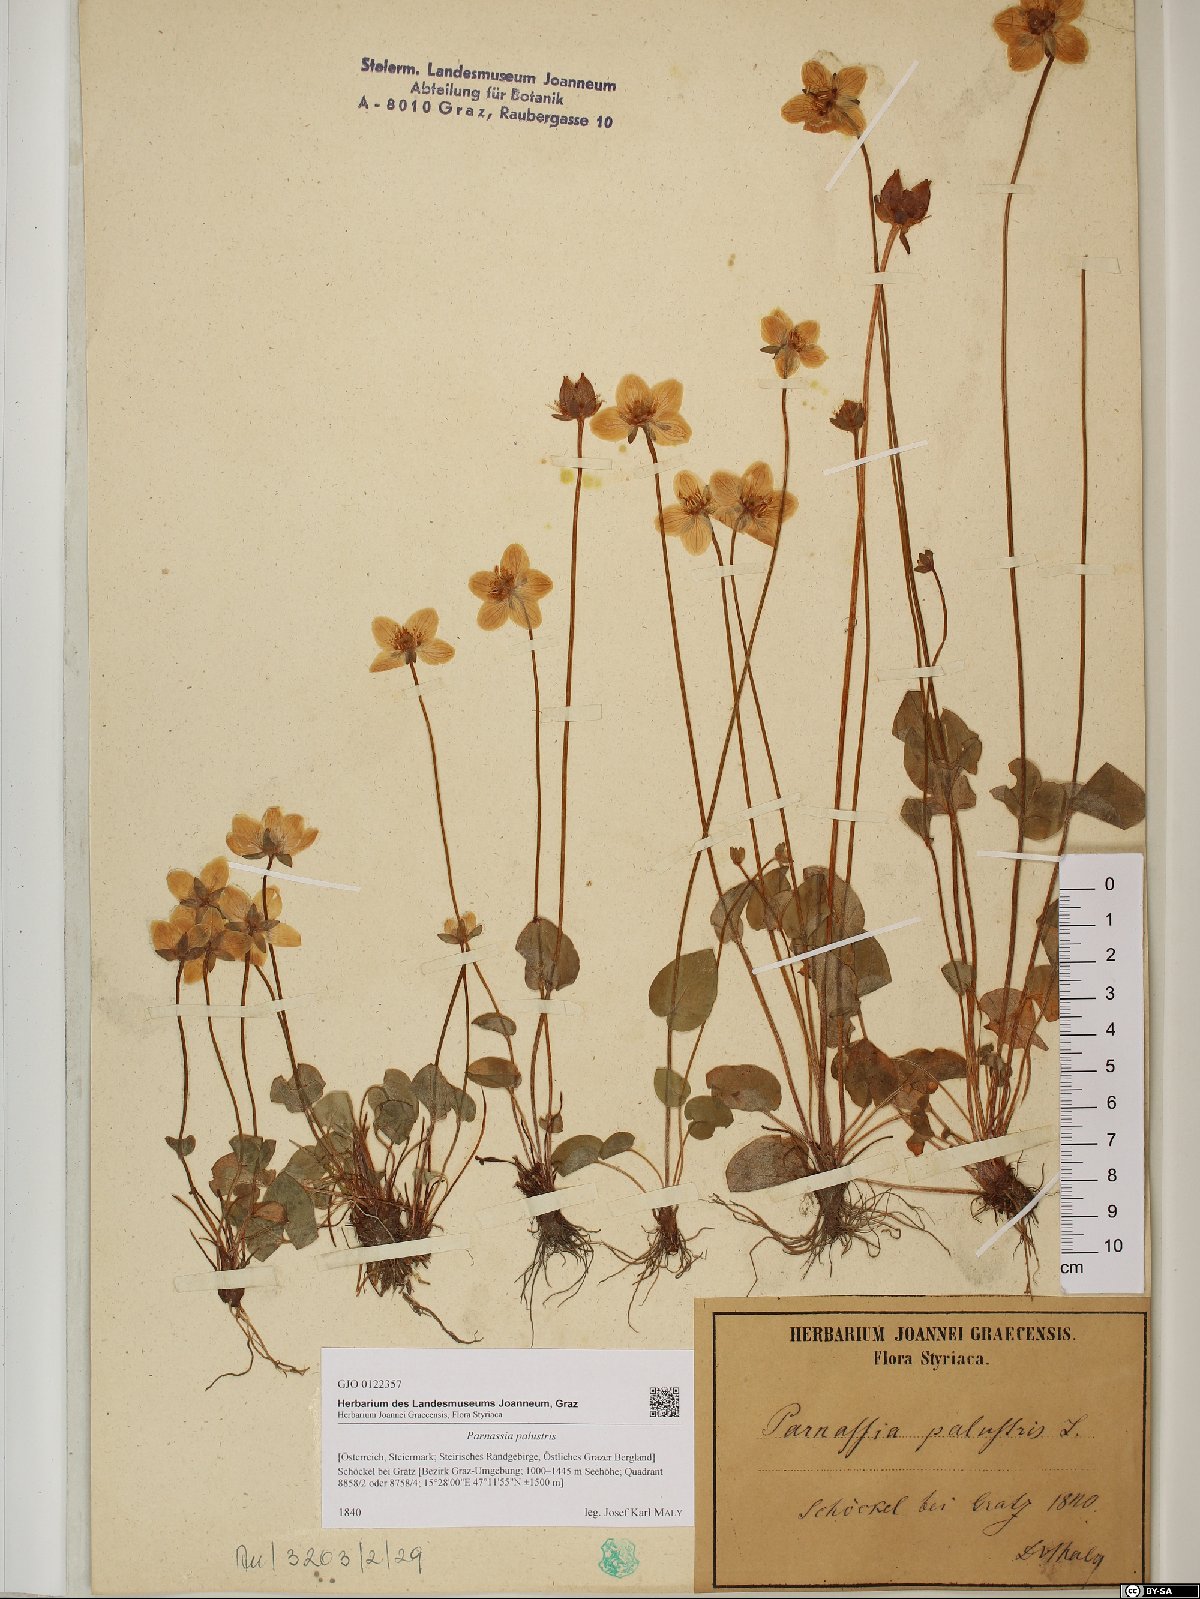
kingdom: Plantae
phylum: Tracheophyta
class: Magnoliopsida
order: Celastrales
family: Parnassiaceae
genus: Parnassia
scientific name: Parnassia palustris
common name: Grass-of-parnassus
